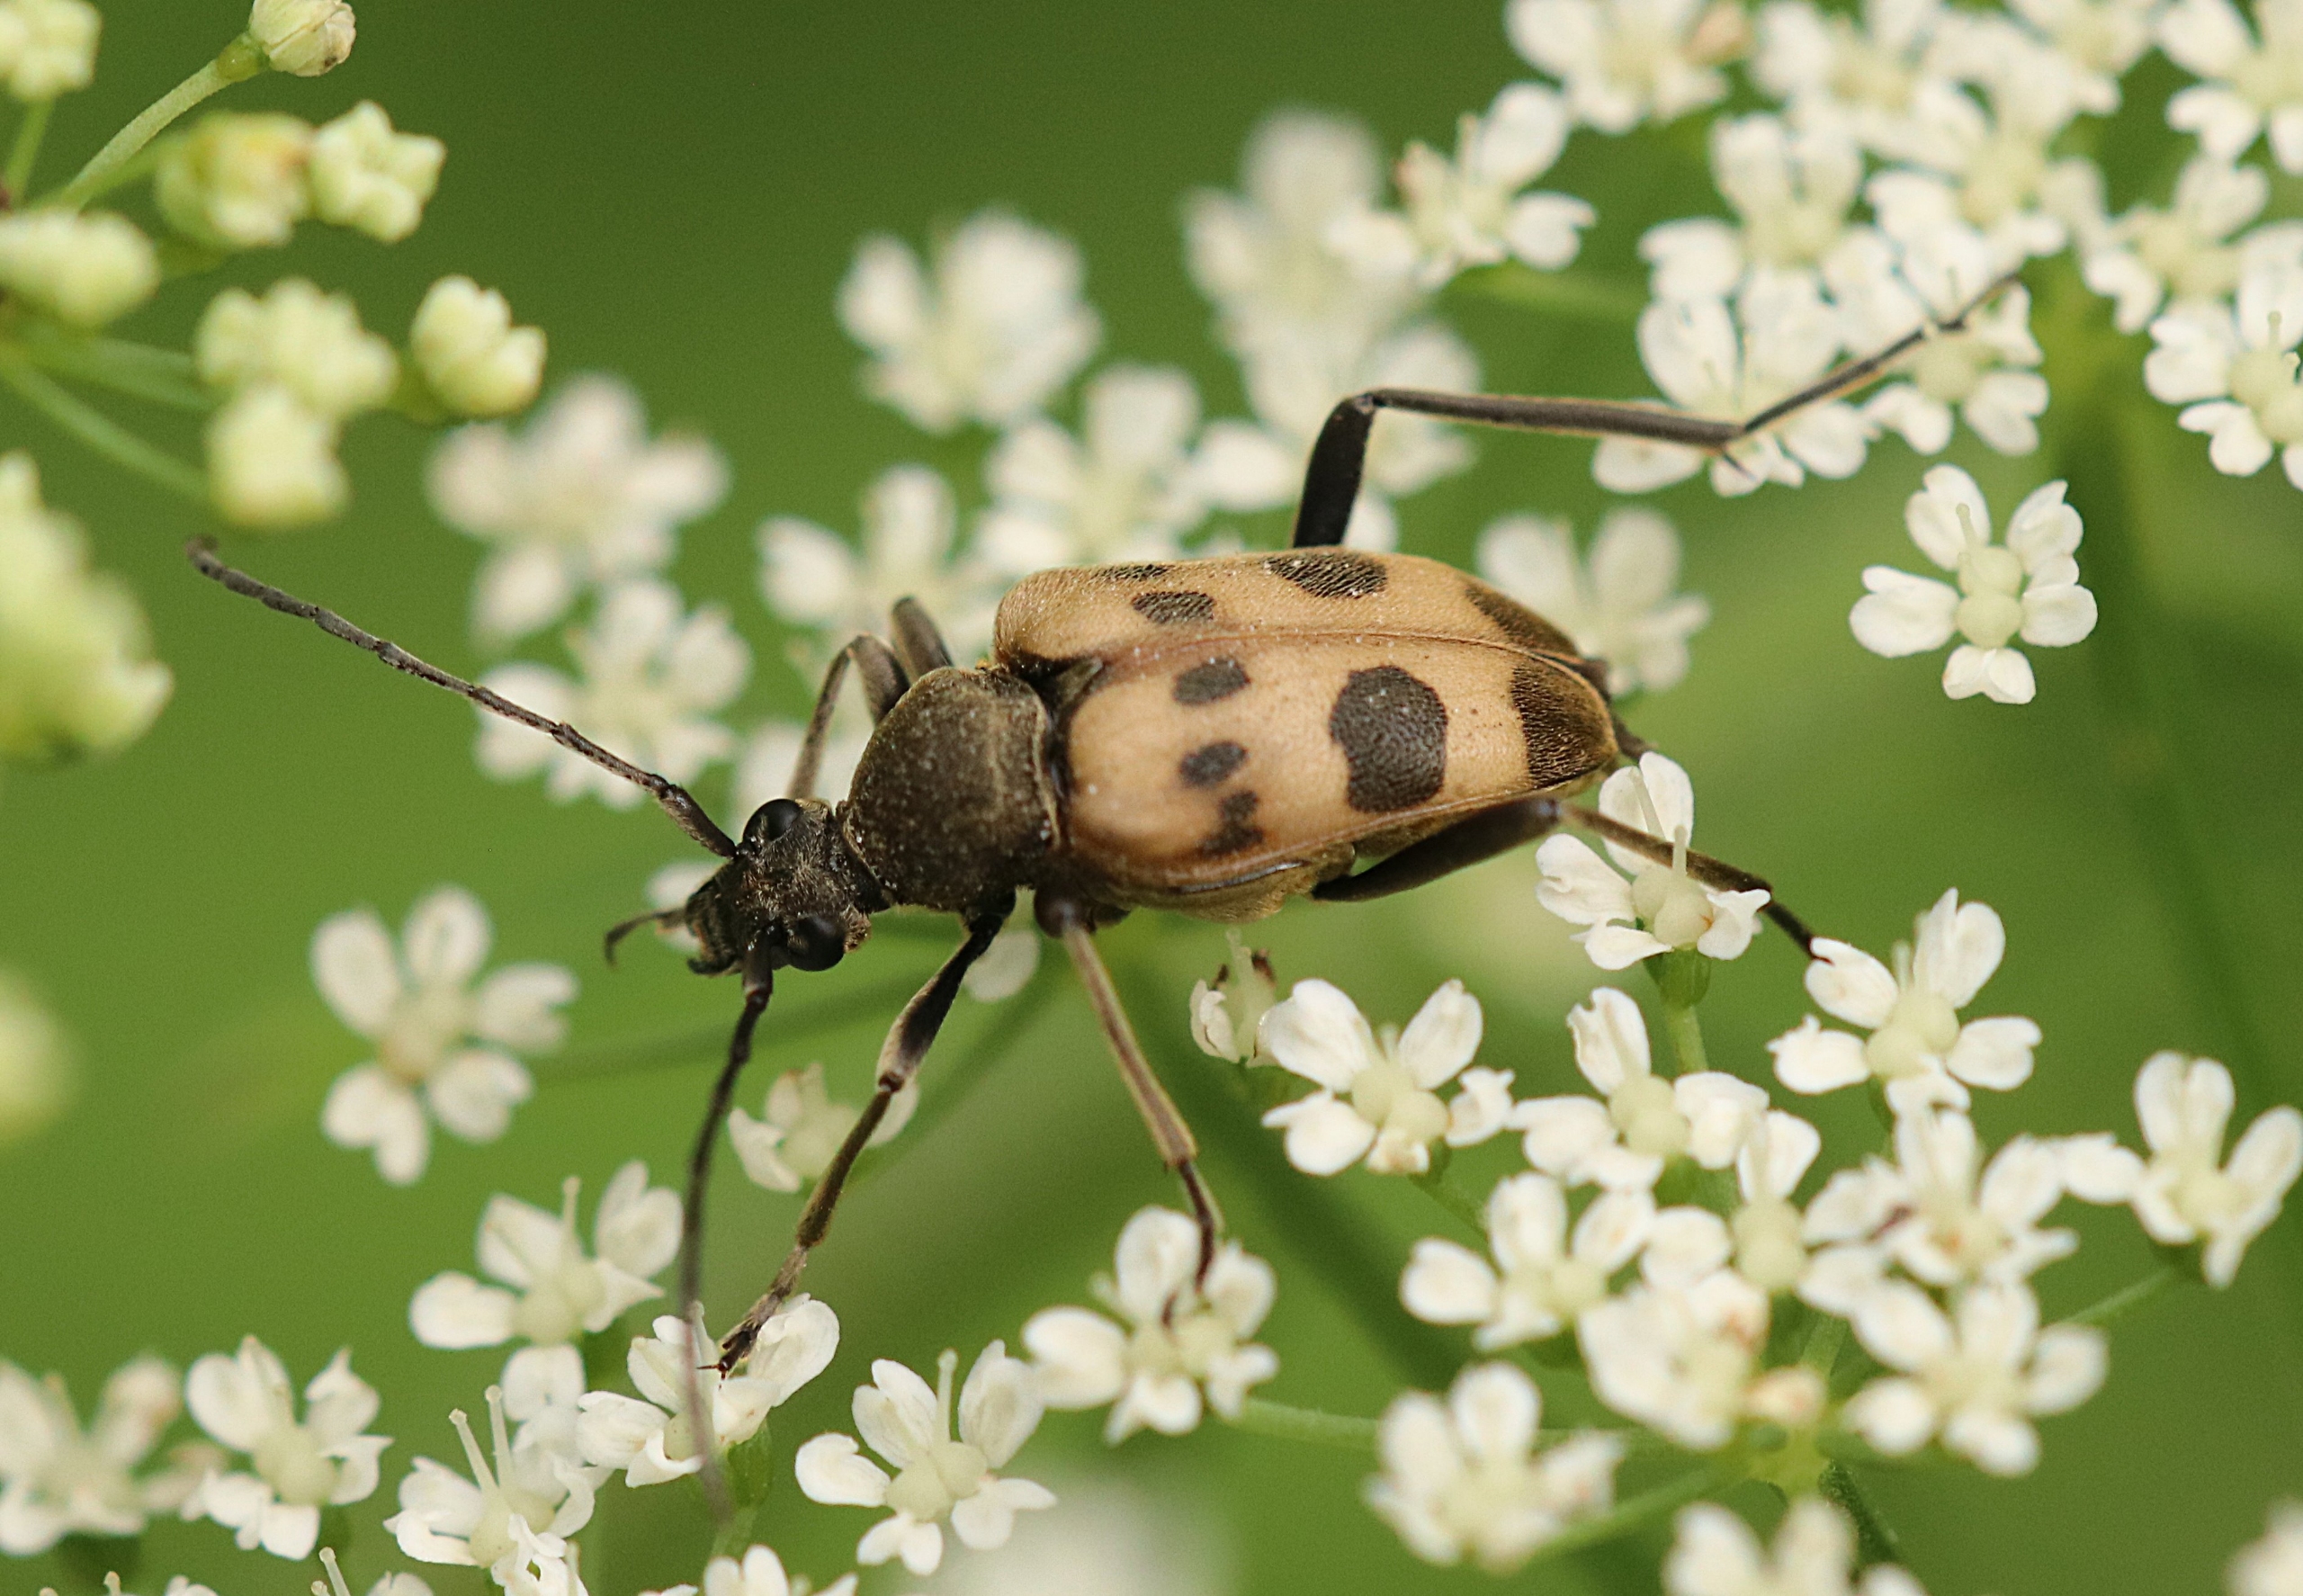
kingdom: Animalia
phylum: Arthropoda
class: Insecta
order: Coleoptera
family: Cerambycidae
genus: Pachytodes
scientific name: Pachytodes cerambyciformis
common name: Jysk blomsterbuk
